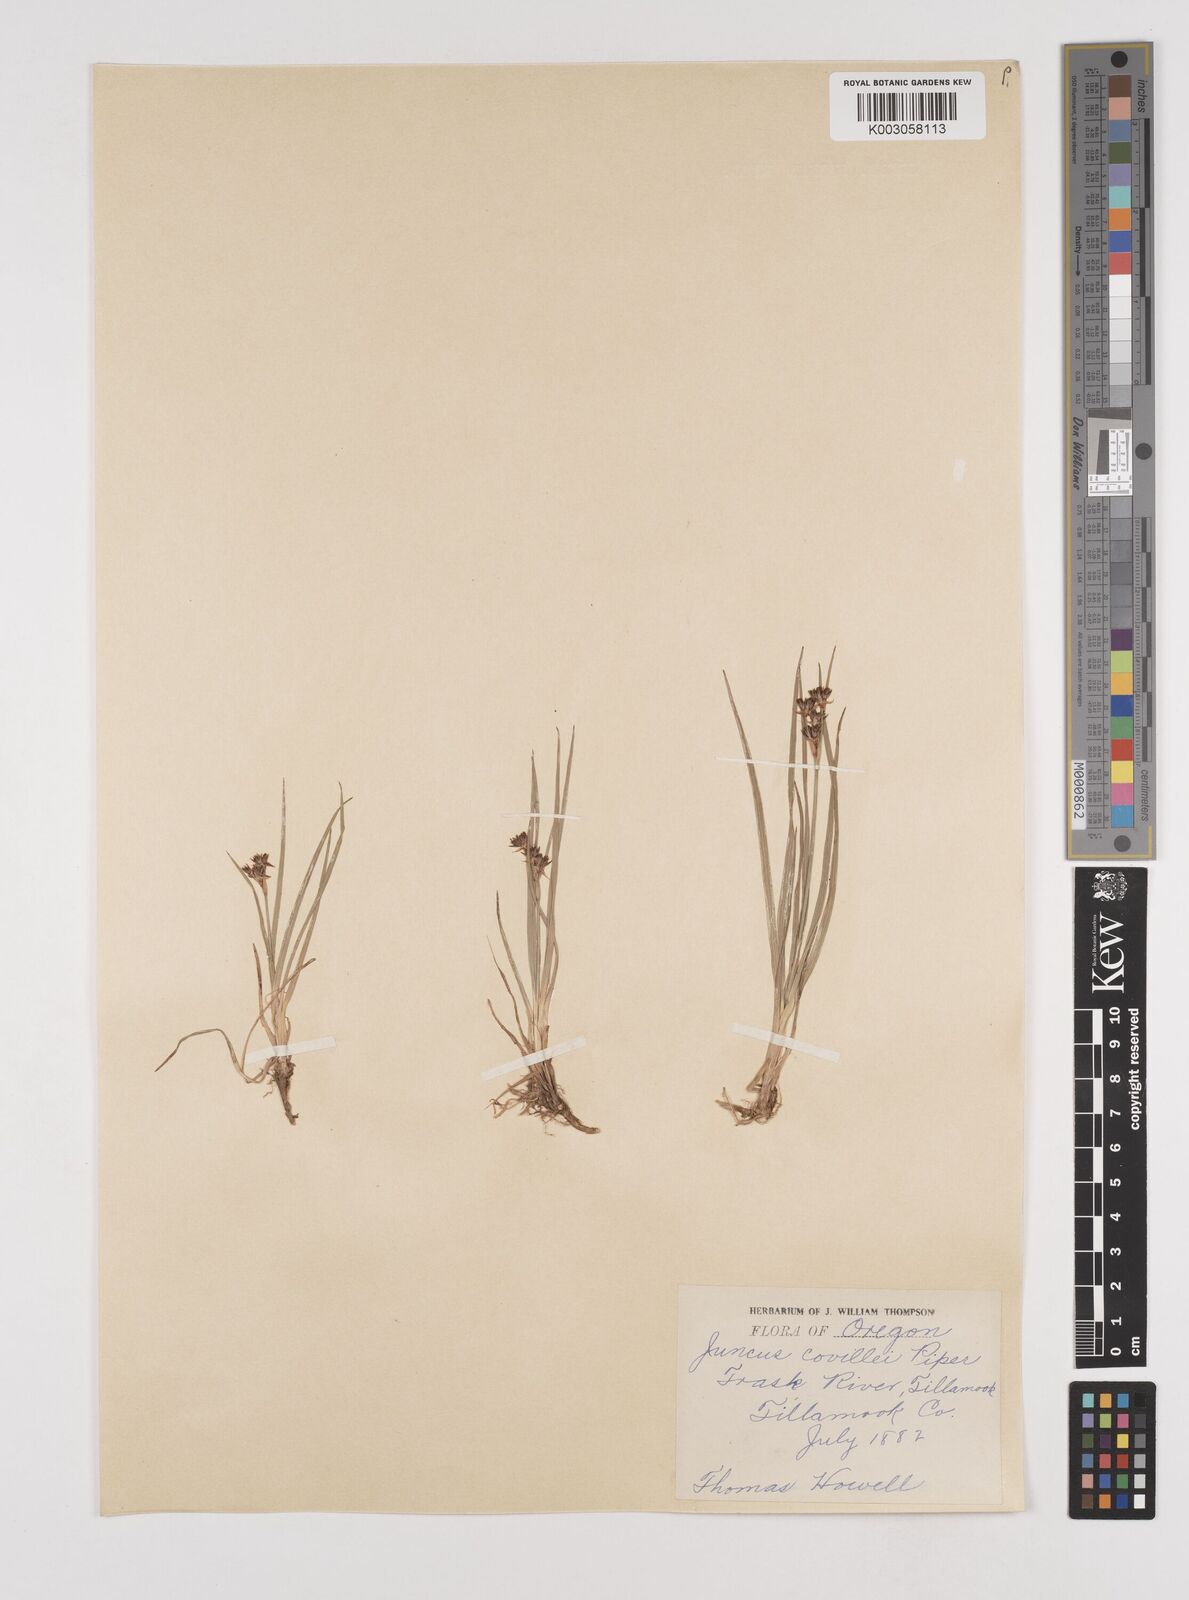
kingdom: Plantae
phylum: Tracheophyta
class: Liliopsida
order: Poales
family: Juncaceae
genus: Juncus
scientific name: Juncus covillei
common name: Coville's rush
